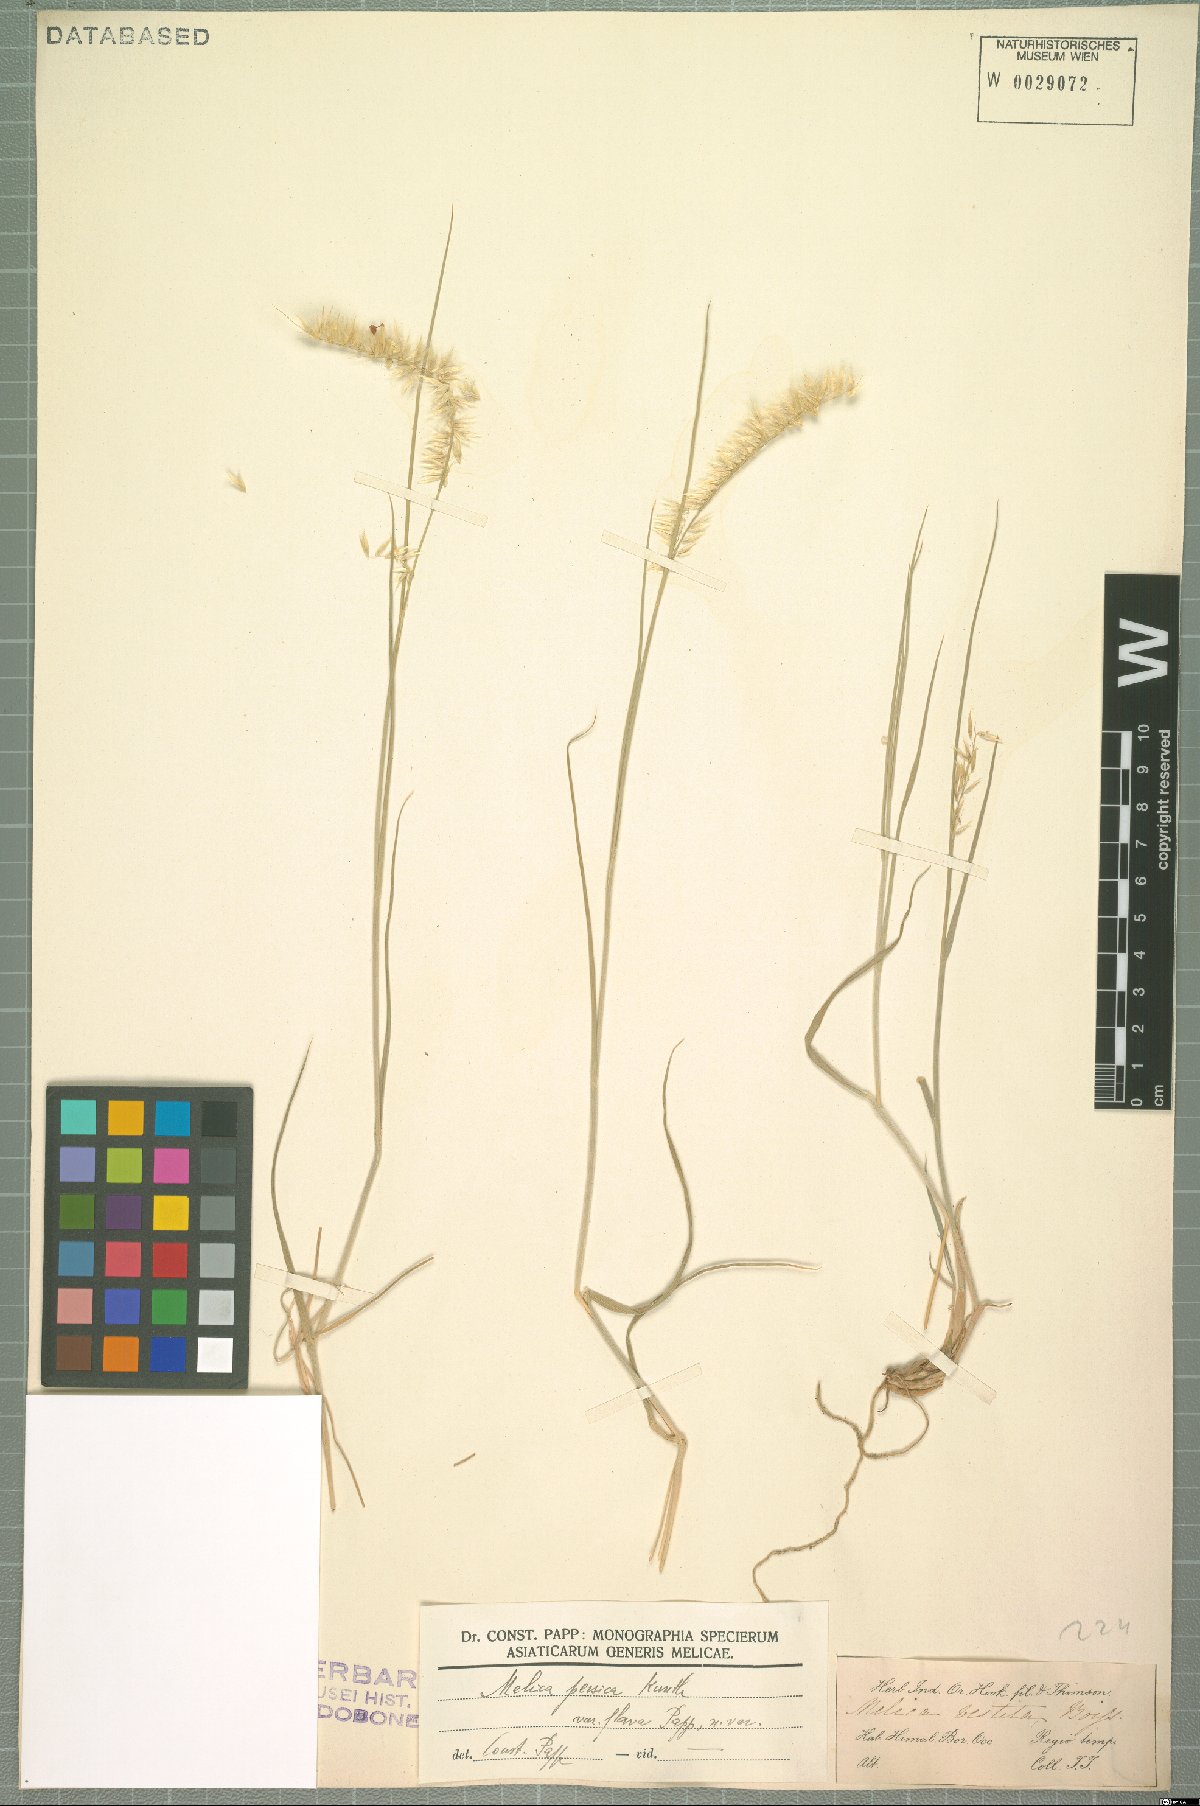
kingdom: Plantae
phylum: Tracheophyta
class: Liliopsida
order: Poales
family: Poaceae
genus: Melica
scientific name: Melica persica
